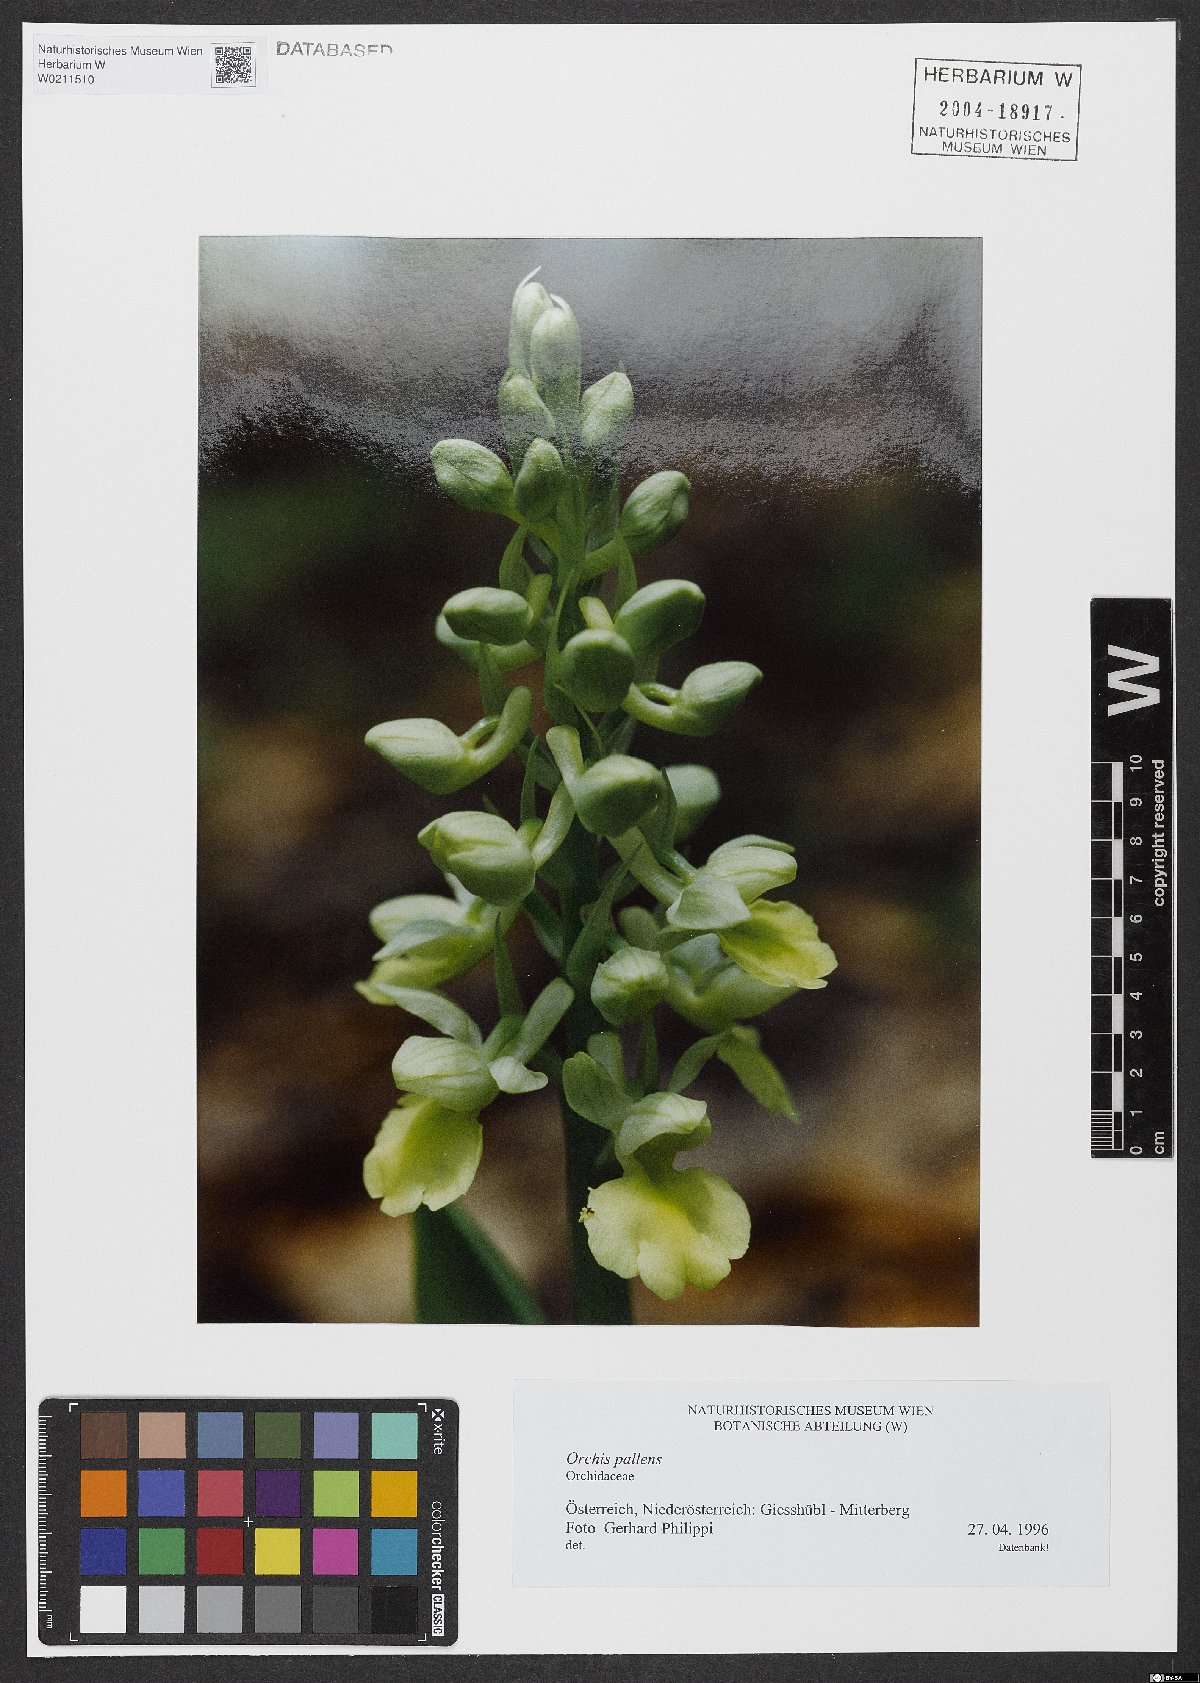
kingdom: Plantae
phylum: Tracheophyta
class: Liliopsida
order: Asparagales
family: Orchidaceae
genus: Orchis
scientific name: Orchis pallens
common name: Pale-flowered orchid
